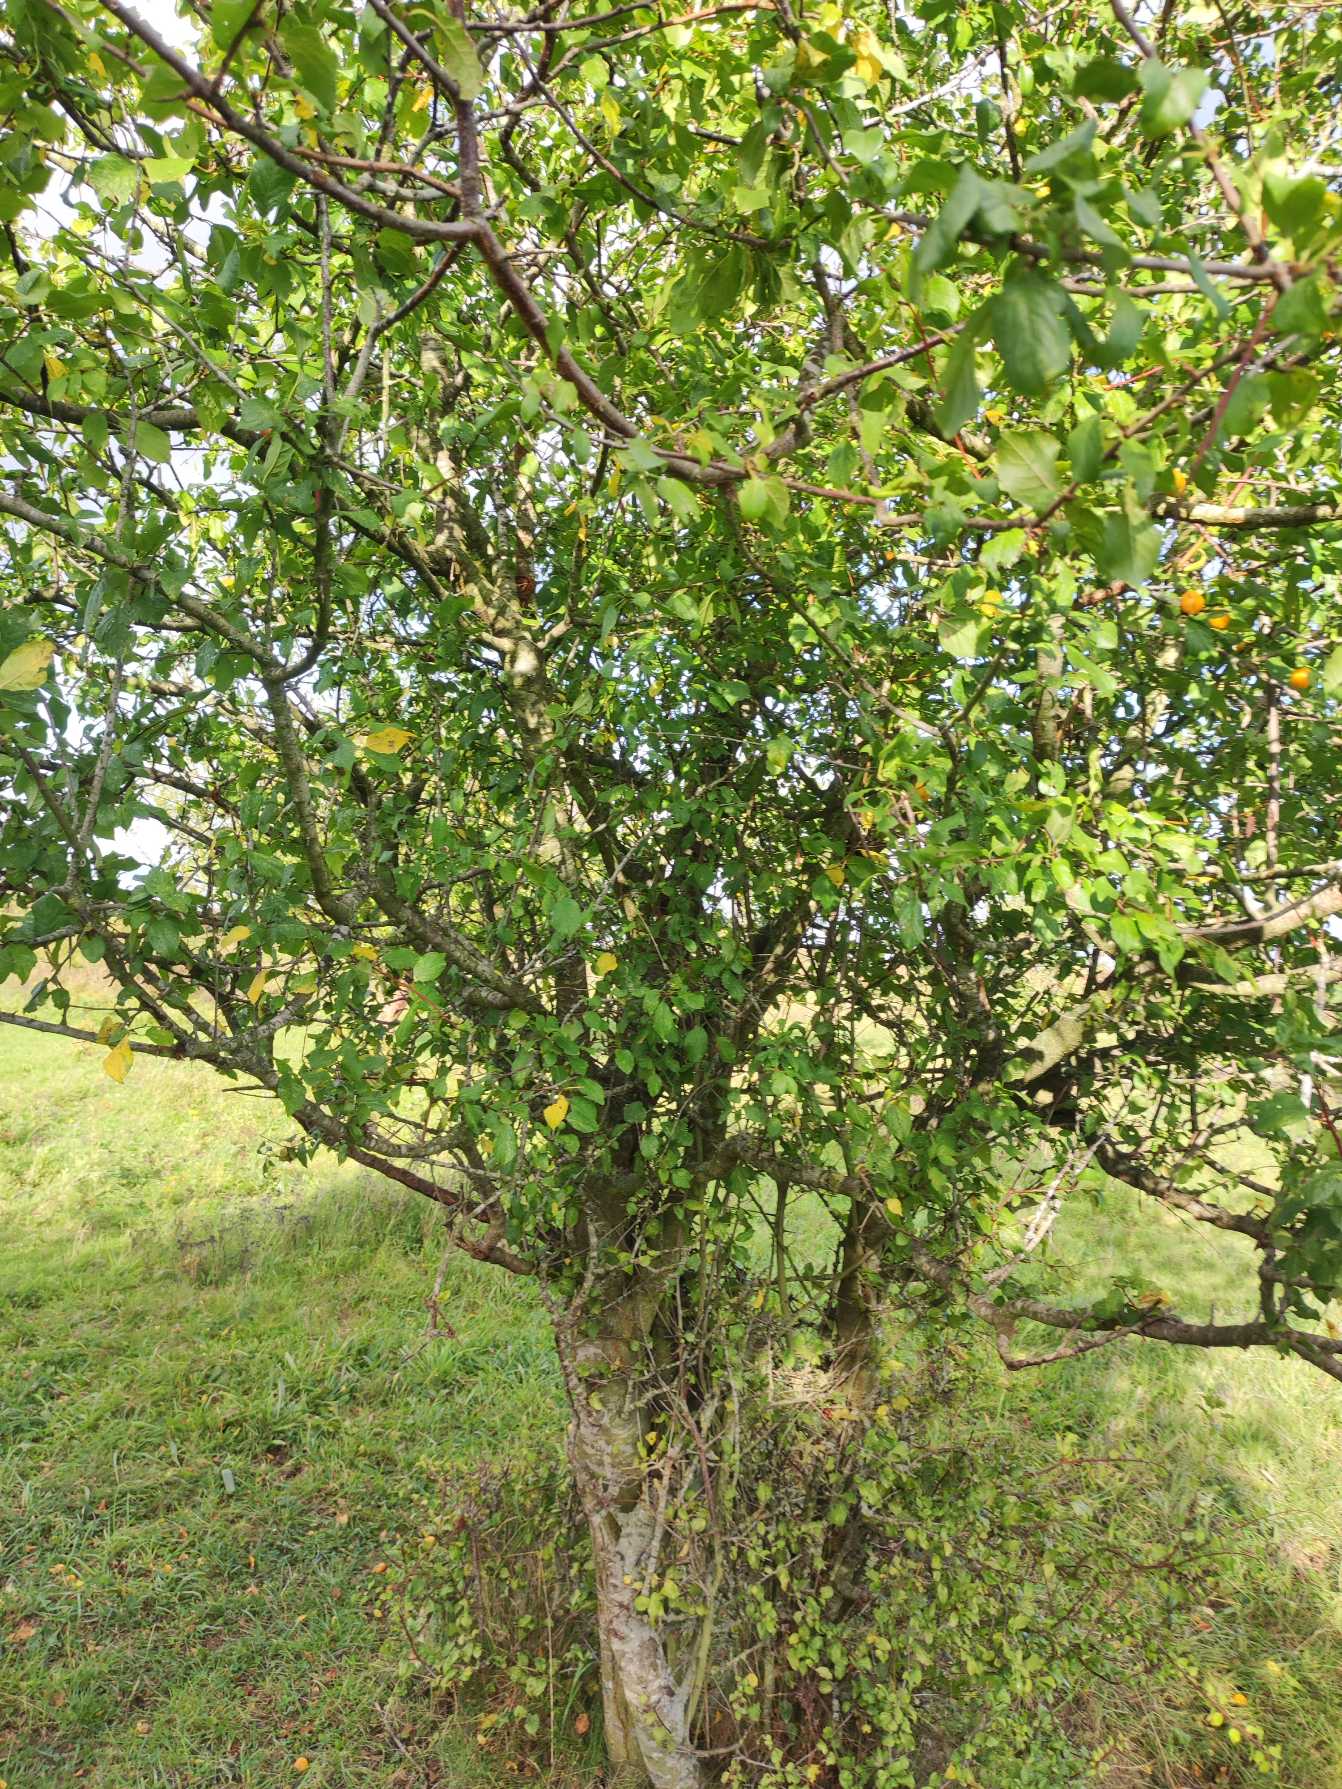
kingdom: Plantae
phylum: Tracheophyta
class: Magnoliopsida
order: Rosales
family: Rosaceae
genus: Prunus
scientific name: Prunus cerasifera
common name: Mirabel
